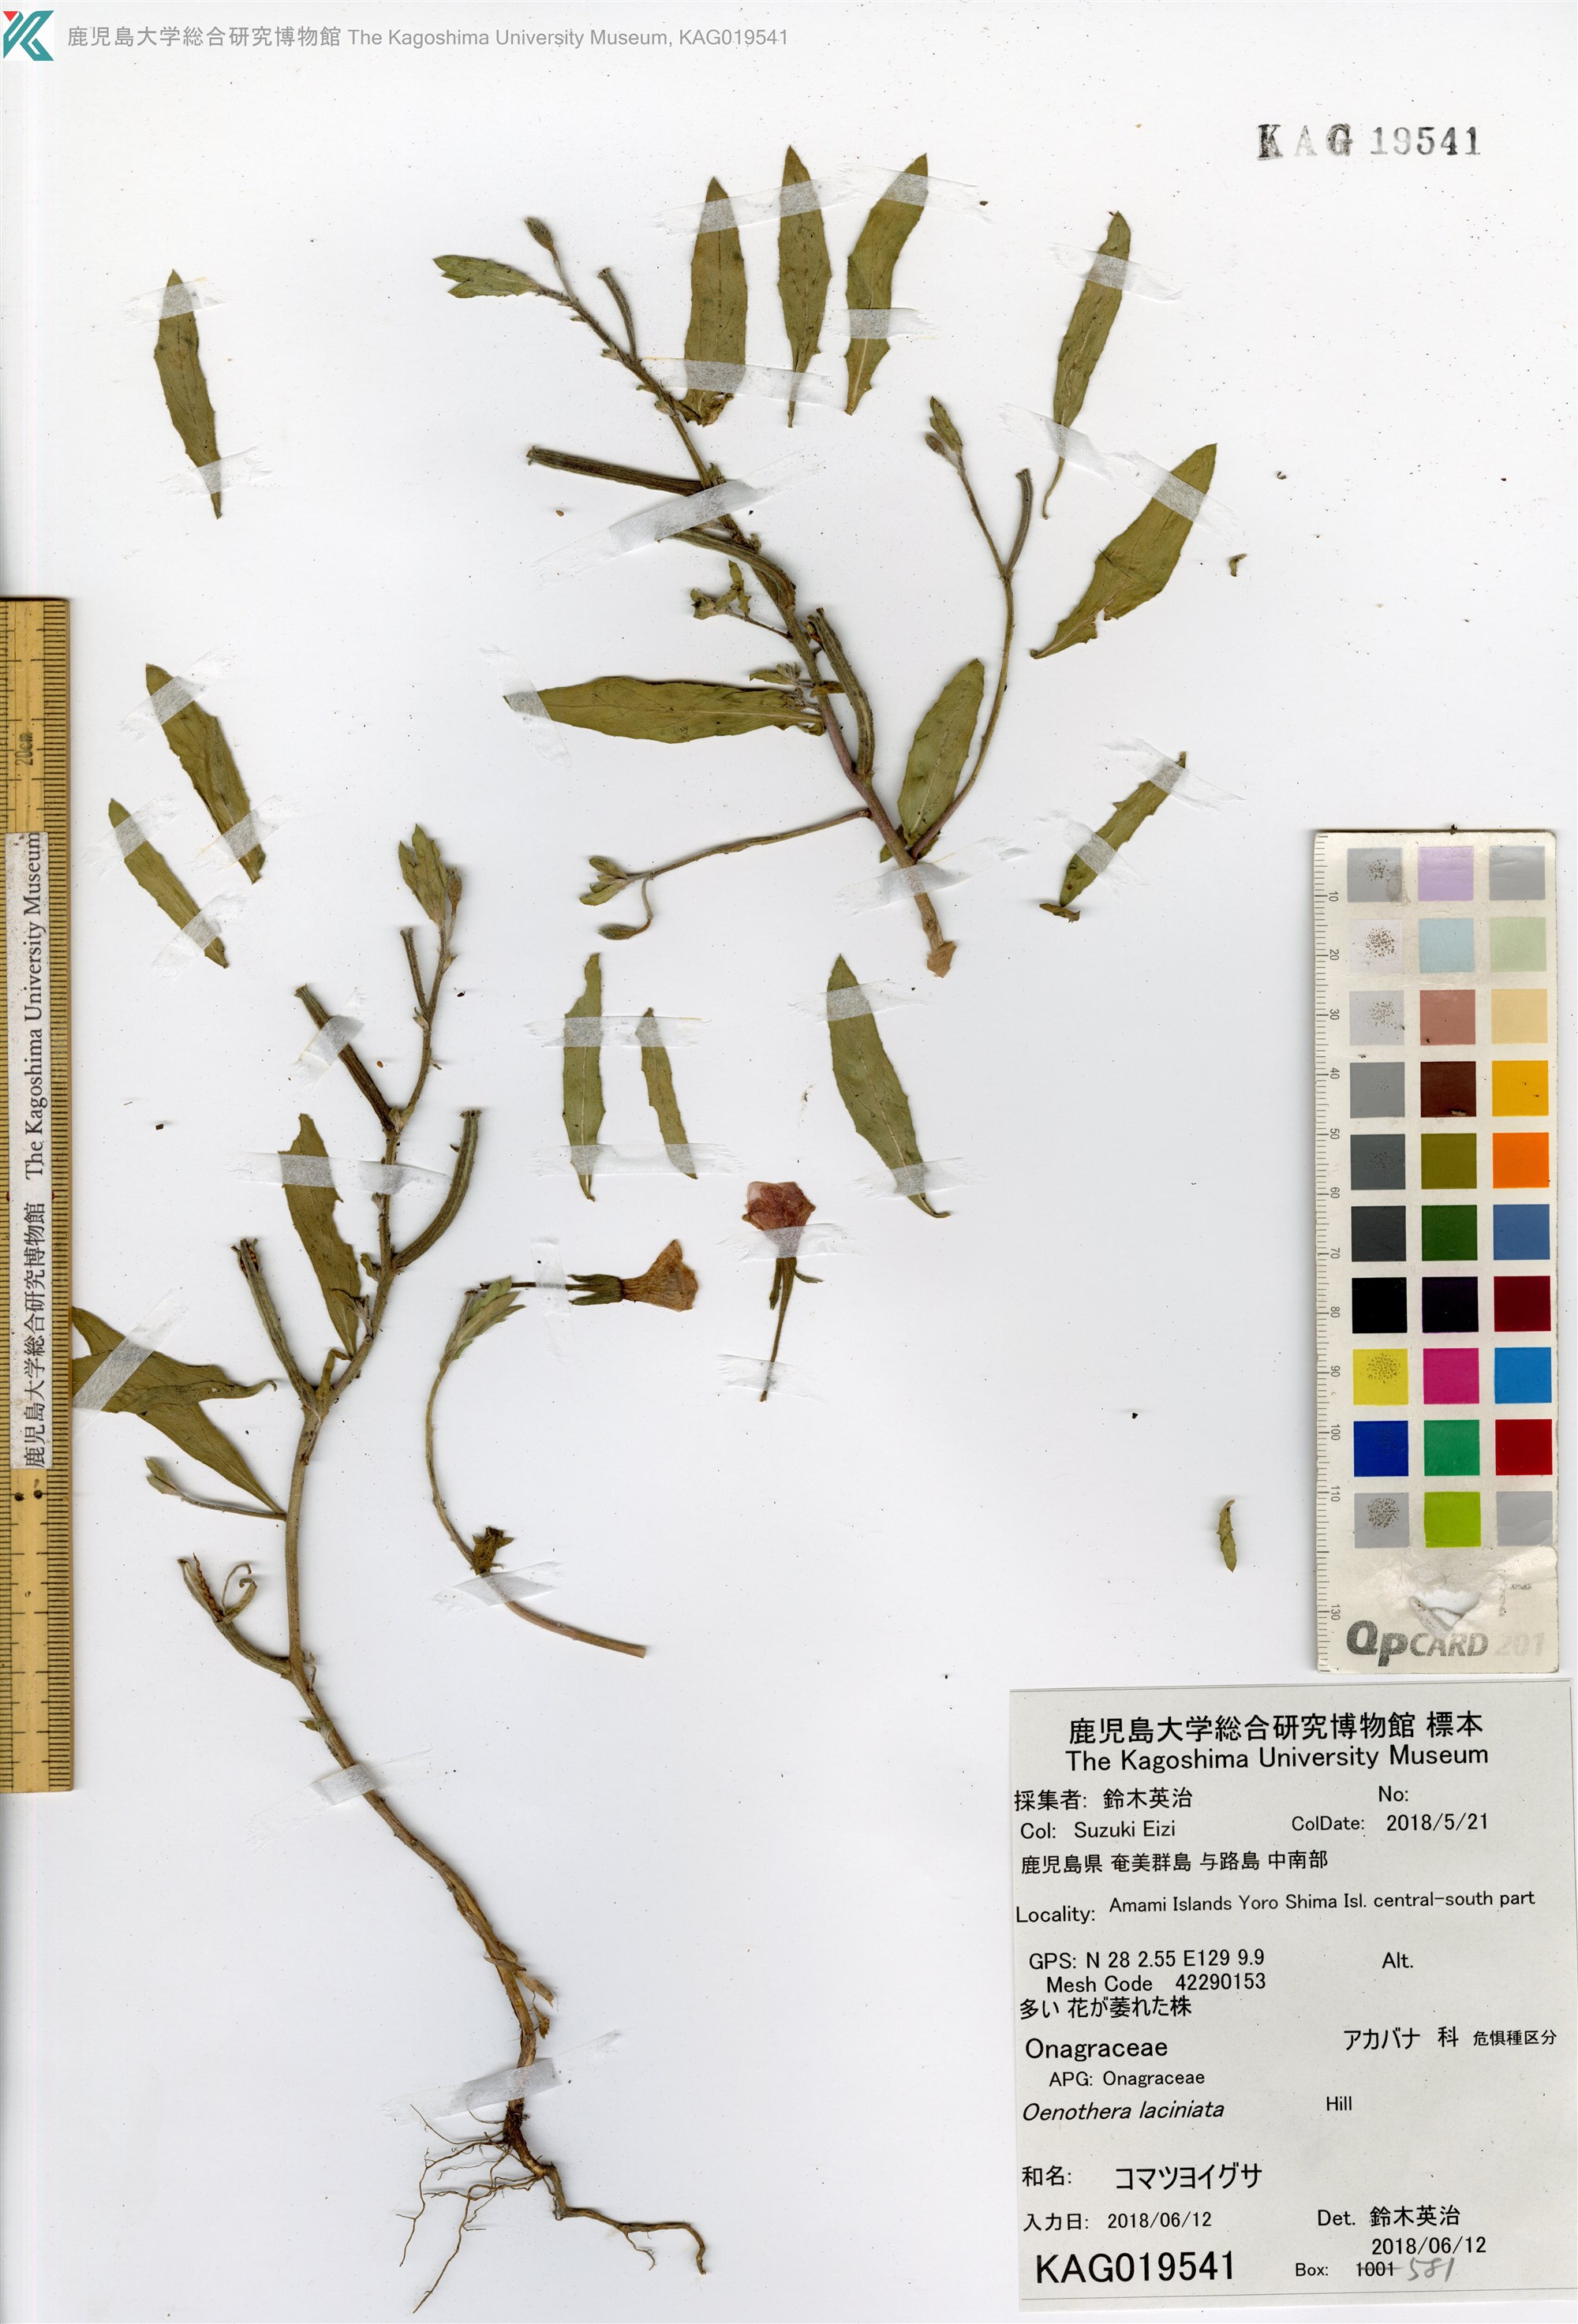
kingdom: Plantae
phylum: Tracheophyta
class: Magnoliopsida
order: Myrtales
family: Onagraceae
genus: Oenothera
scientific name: Oenothera laciniata
